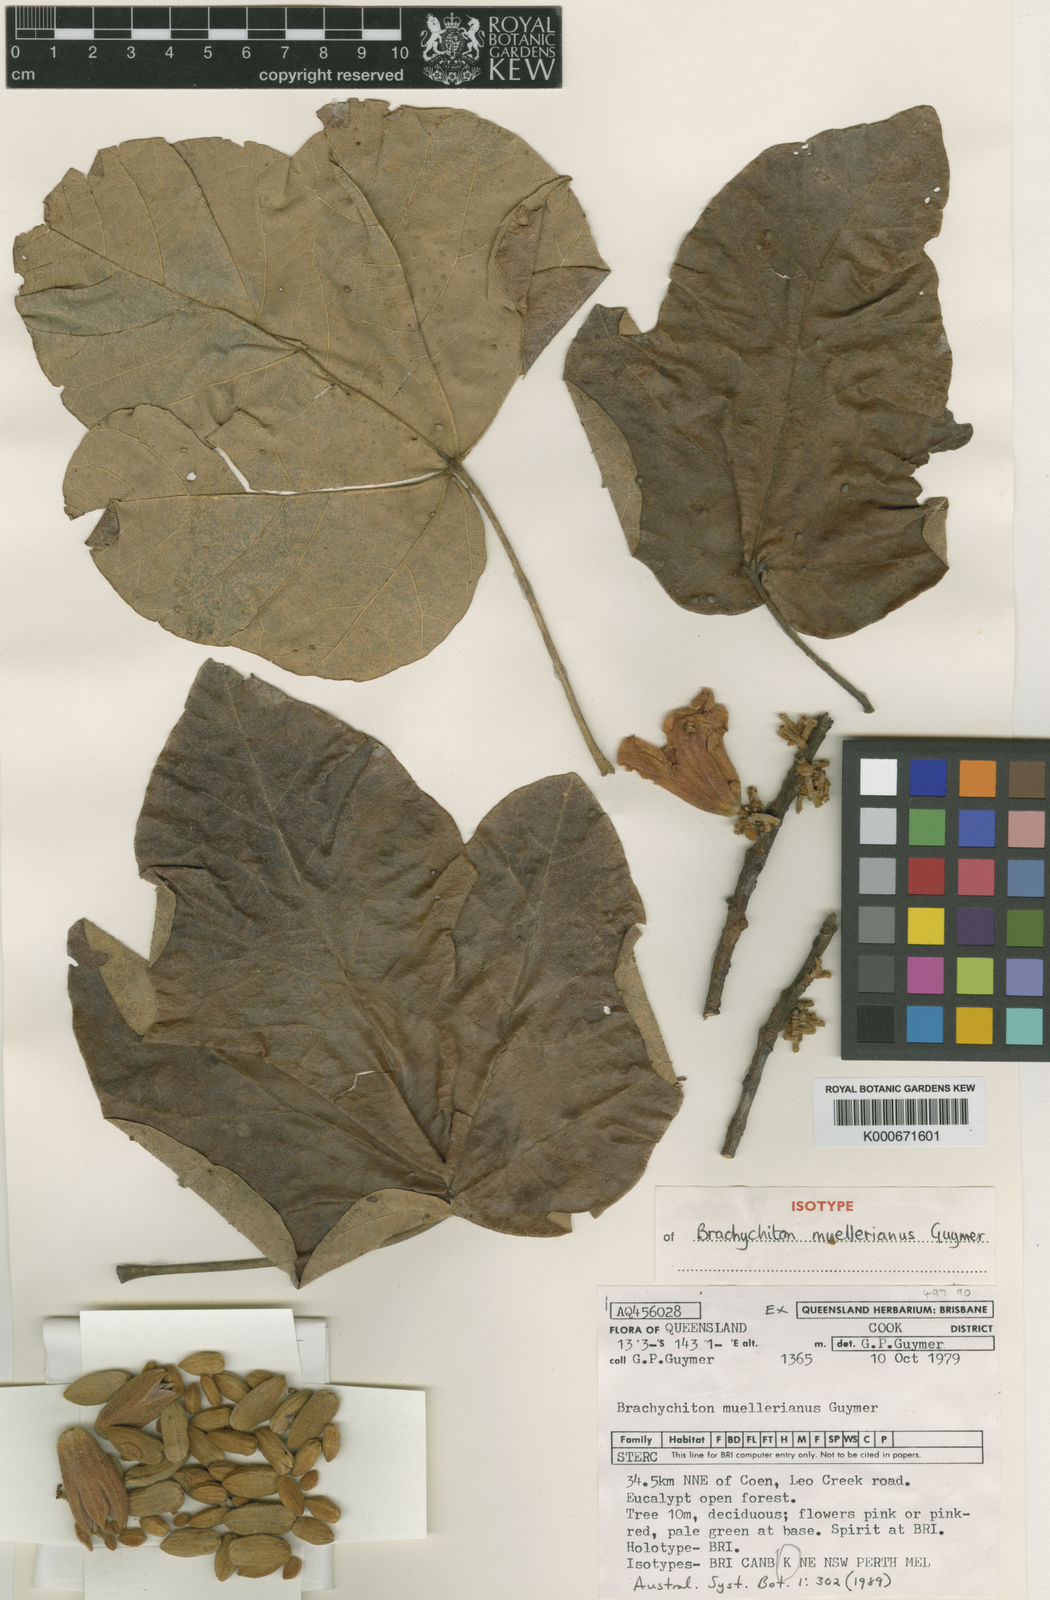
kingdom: Plantae
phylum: Tracheophyta
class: Magnoliopsida
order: Malvales
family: Malvaceae
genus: Brachychiton
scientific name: Brachychiton muellerianus
